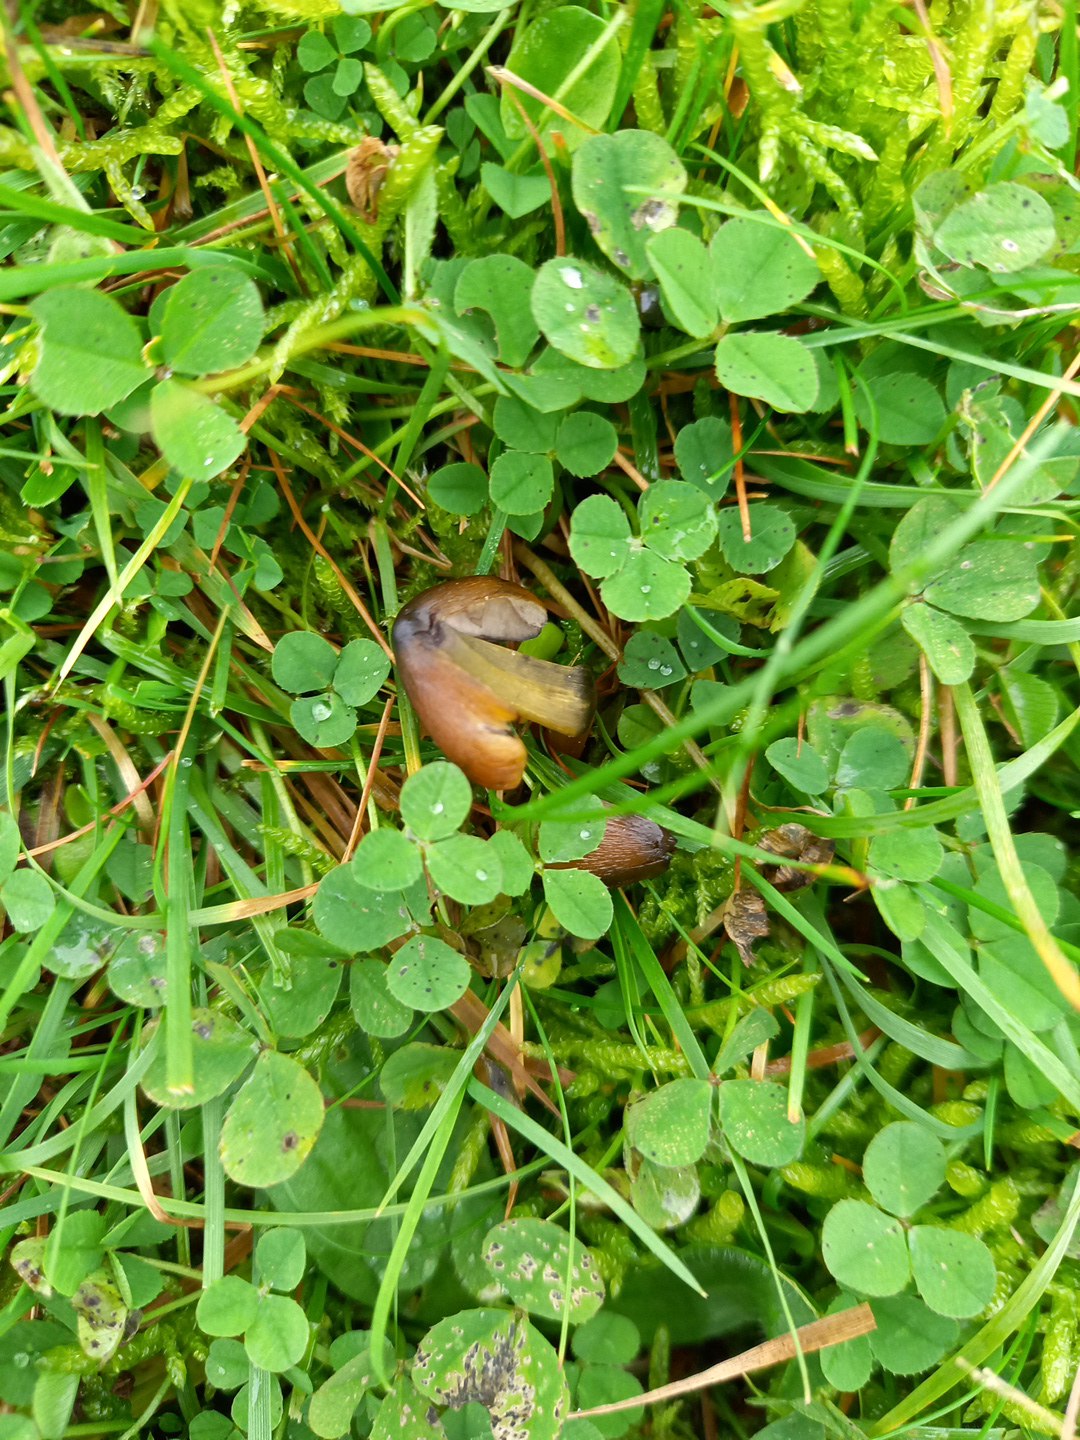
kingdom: Fungi
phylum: Basidiomycota
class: Agaricomycetes
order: Agaricales
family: Hygrophoraceae
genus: Hygrocybe
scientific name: Hygrocybe conica
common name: kegle-vokshat
